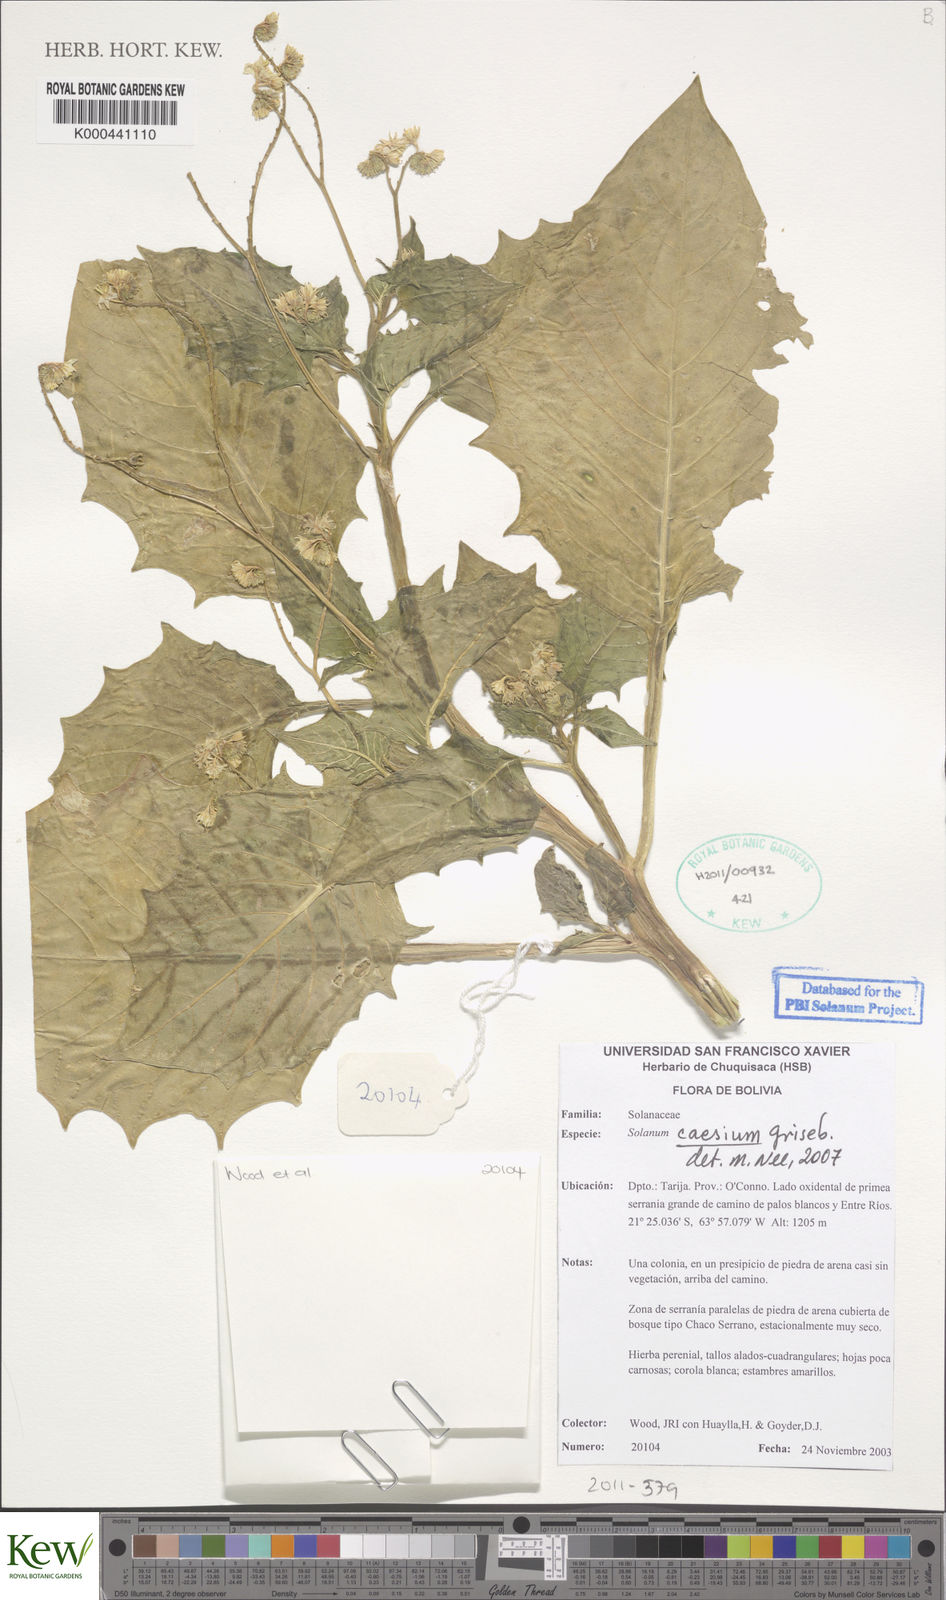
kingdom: Plantae
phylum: Tracheophyta
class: Magnoliopsida
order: Solanales
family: Solanaceae
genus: Solanum
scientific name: Solanum caesium
